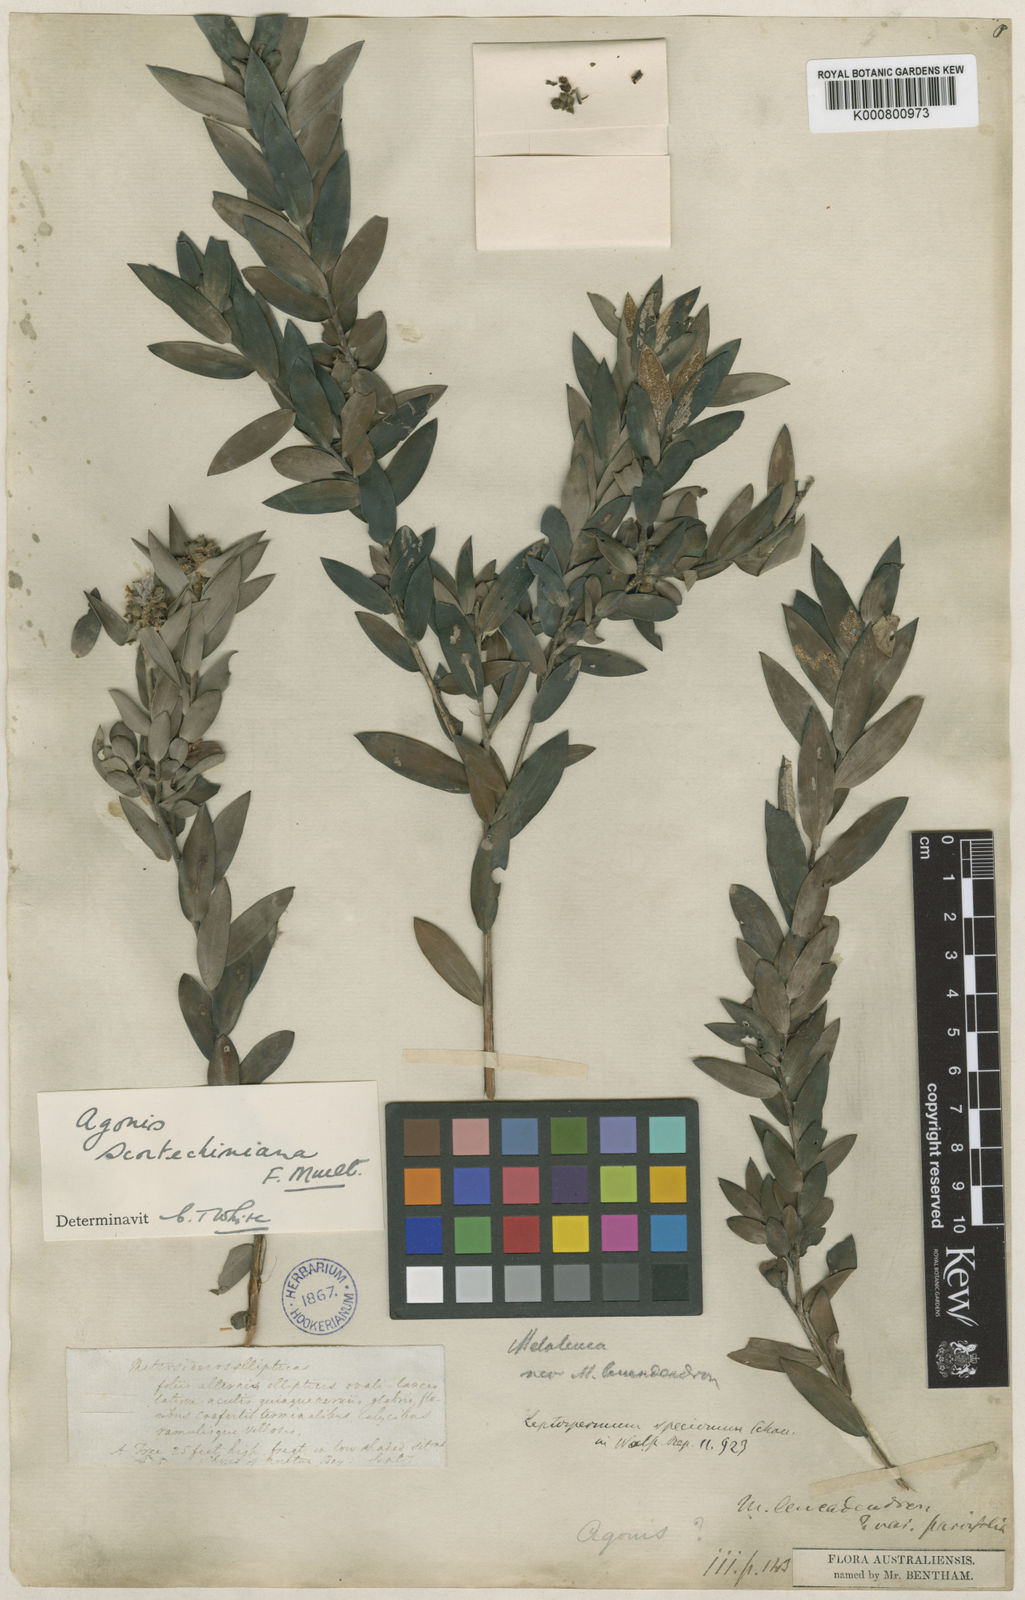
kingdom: Plantae
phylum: Tracheophyta
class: Magnoliopsida
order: Myrtales
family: Myrtaceae
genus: Leptospermum
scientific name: Leptospermum speciosum
